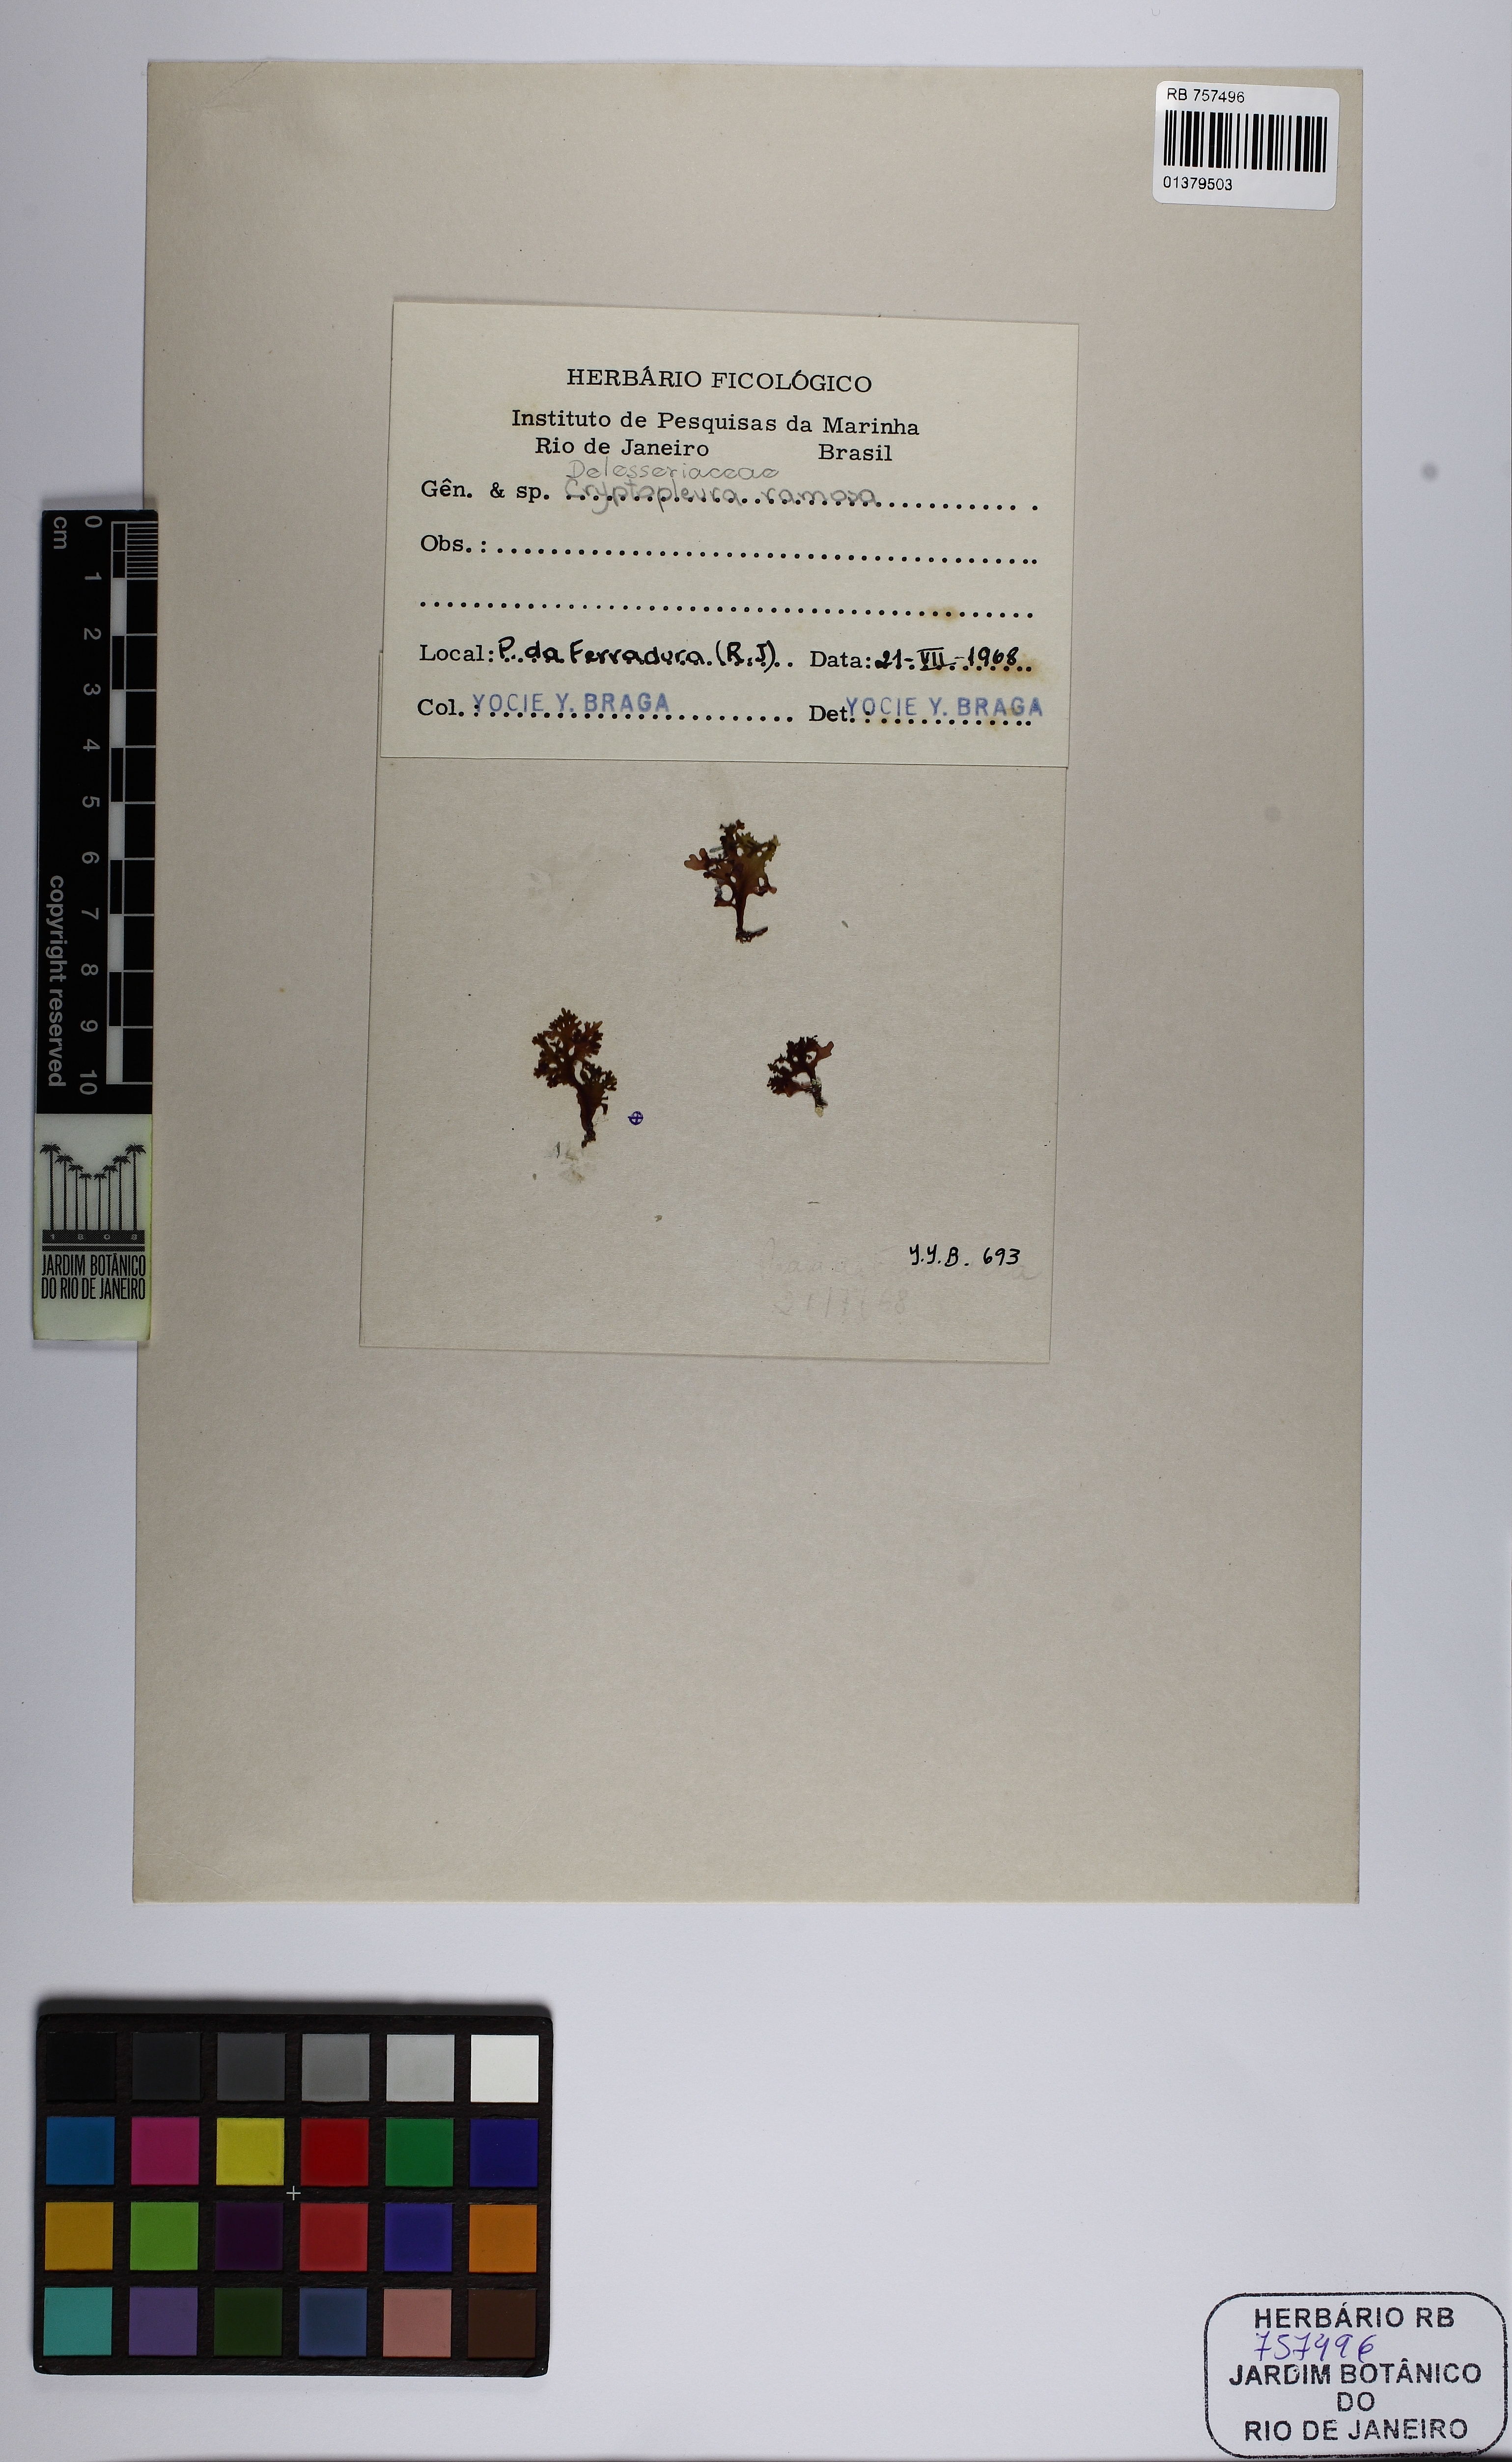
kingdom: Plantae
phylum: Rhodophyta
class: Florideophyceae
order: Ceramiales
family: Delesseriaceae
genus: Cryptopleura
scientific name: Cryptopleura ramosa
